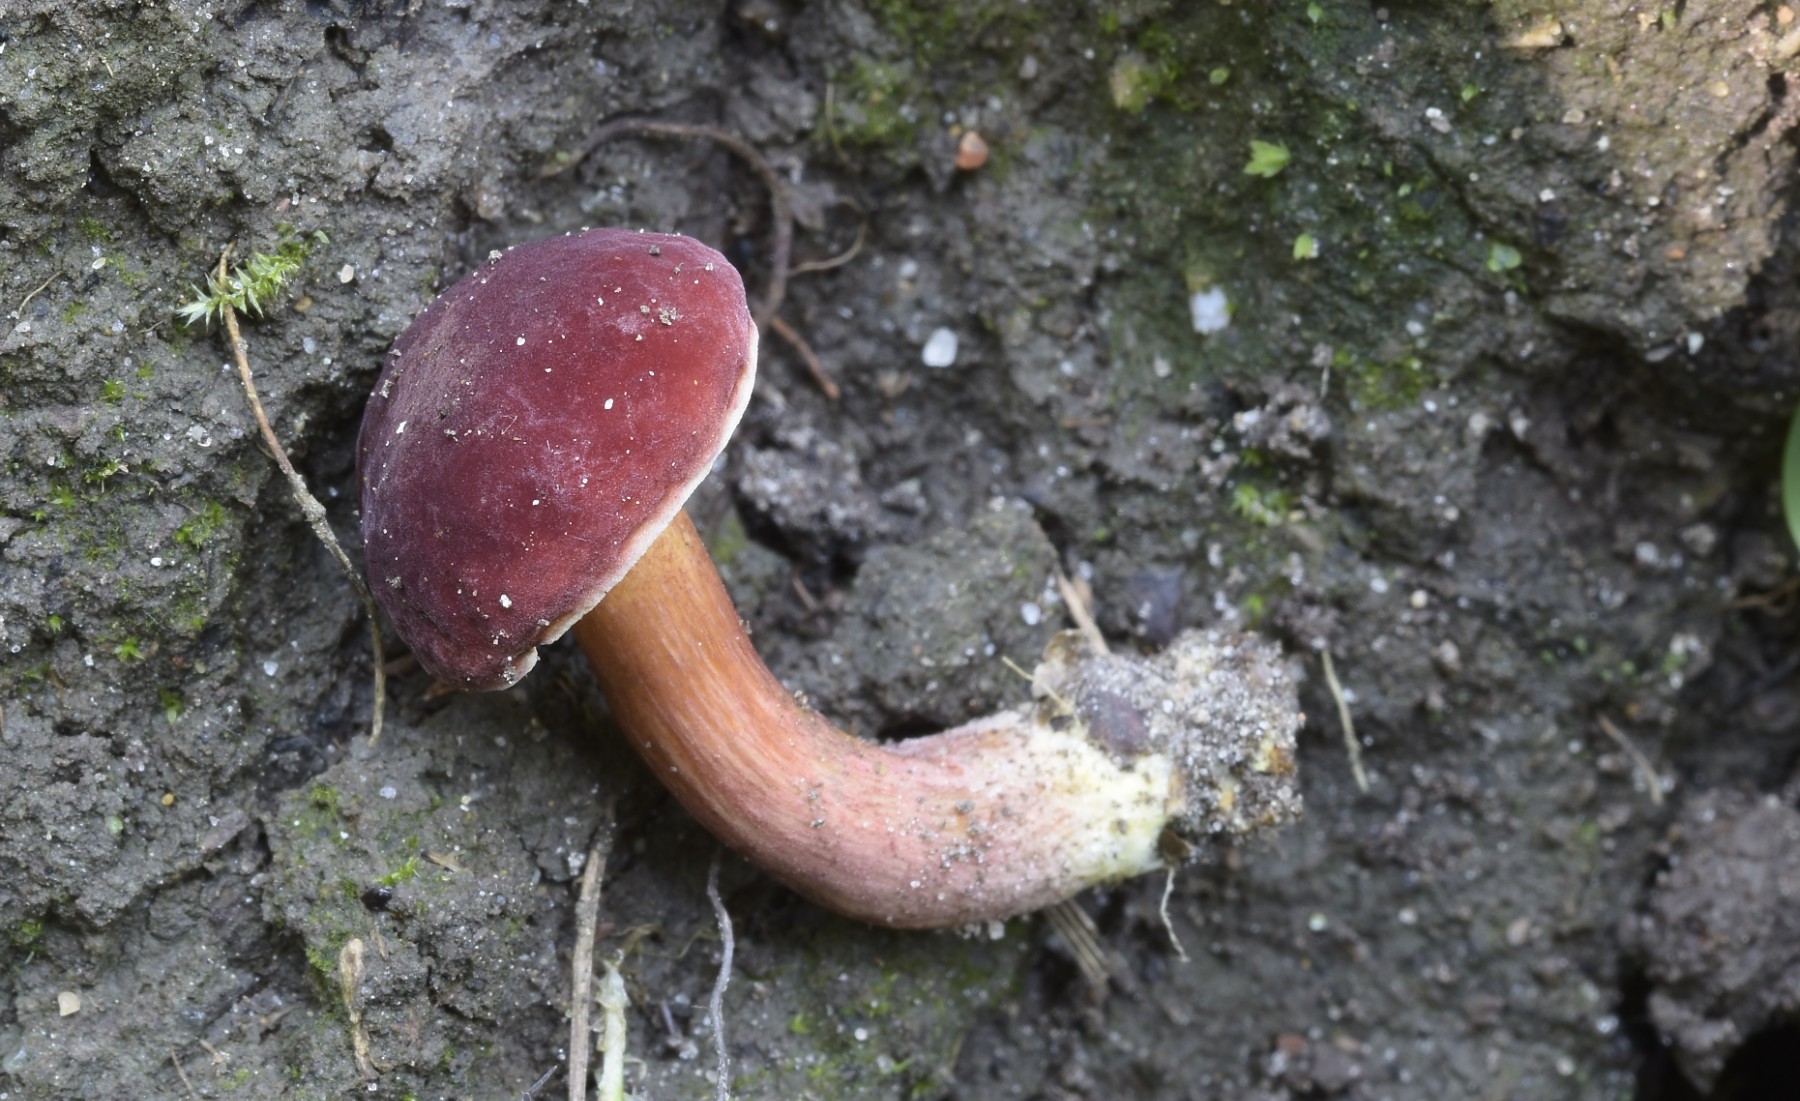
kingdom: Fungi
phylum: Basidiomycota
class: Agaricomycetes
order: Boletales
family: Boletaceae
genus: Hortiboletus
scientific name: Hortiboletus rubellus
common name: blodrød rørhat
